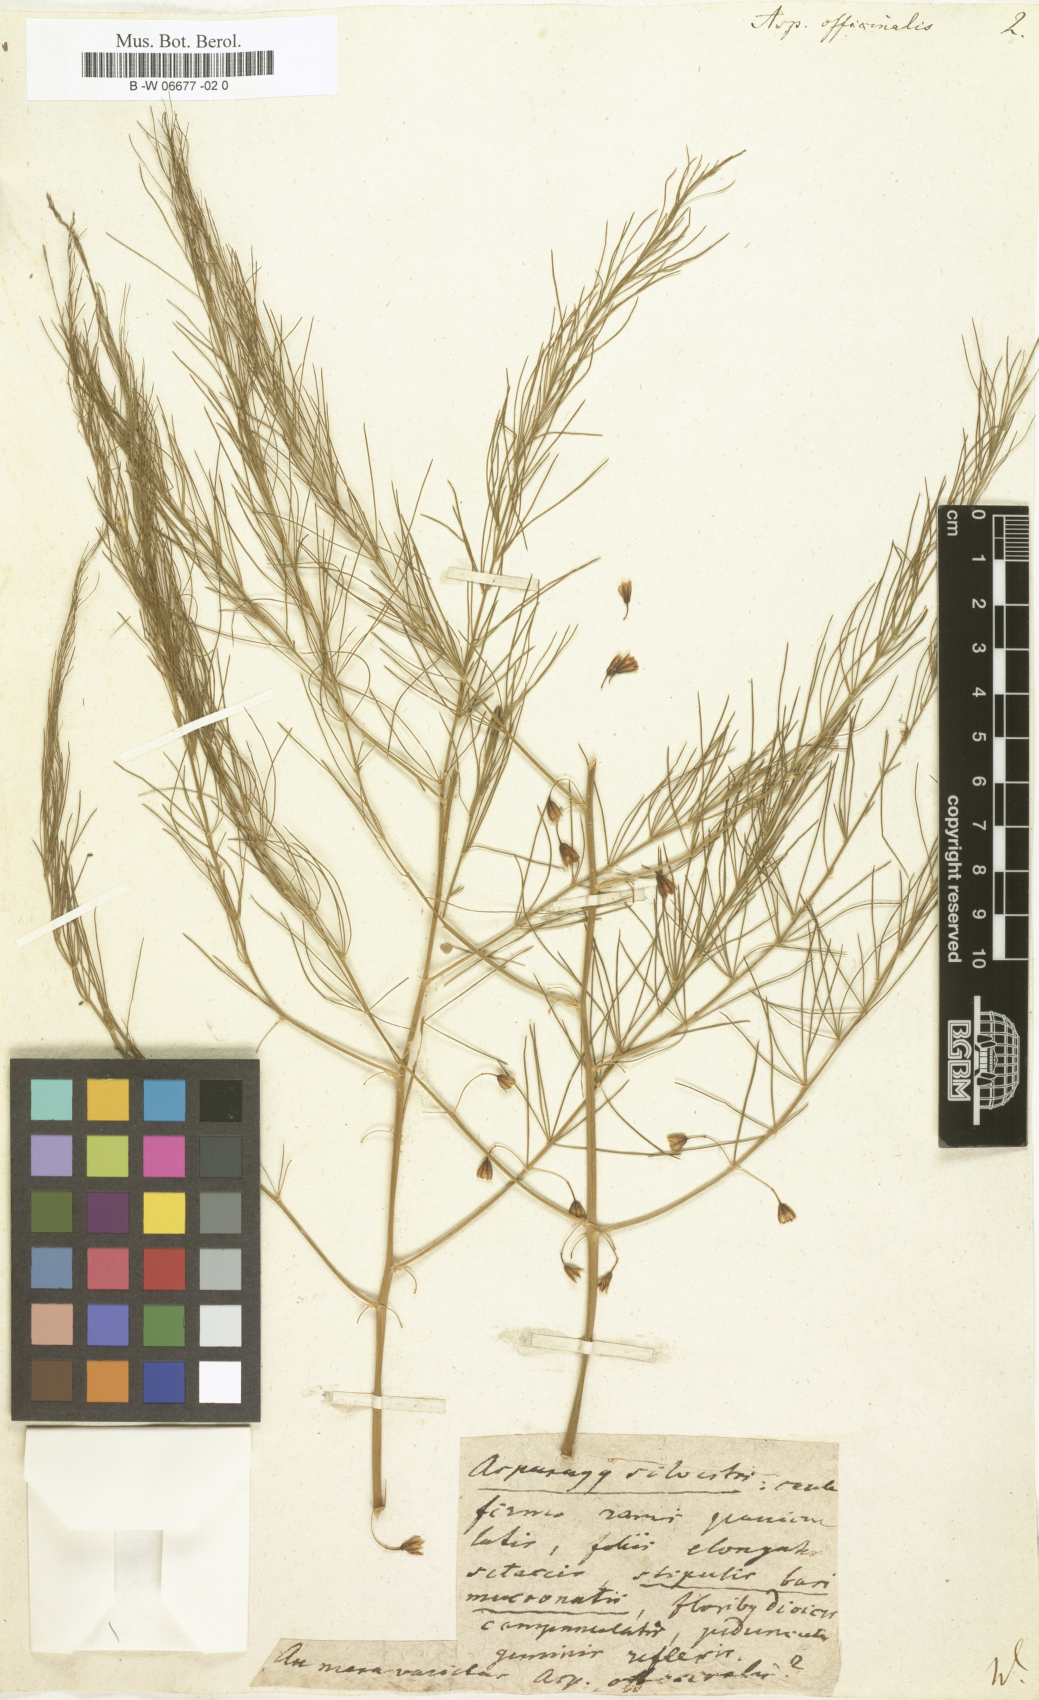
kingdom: Plantae
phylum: Tracheophyta
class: Liliopsida
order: Asparagales
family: Asparagaceae
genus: Asparagus
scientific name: Asparagus officinalis
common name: Garden asparagus
